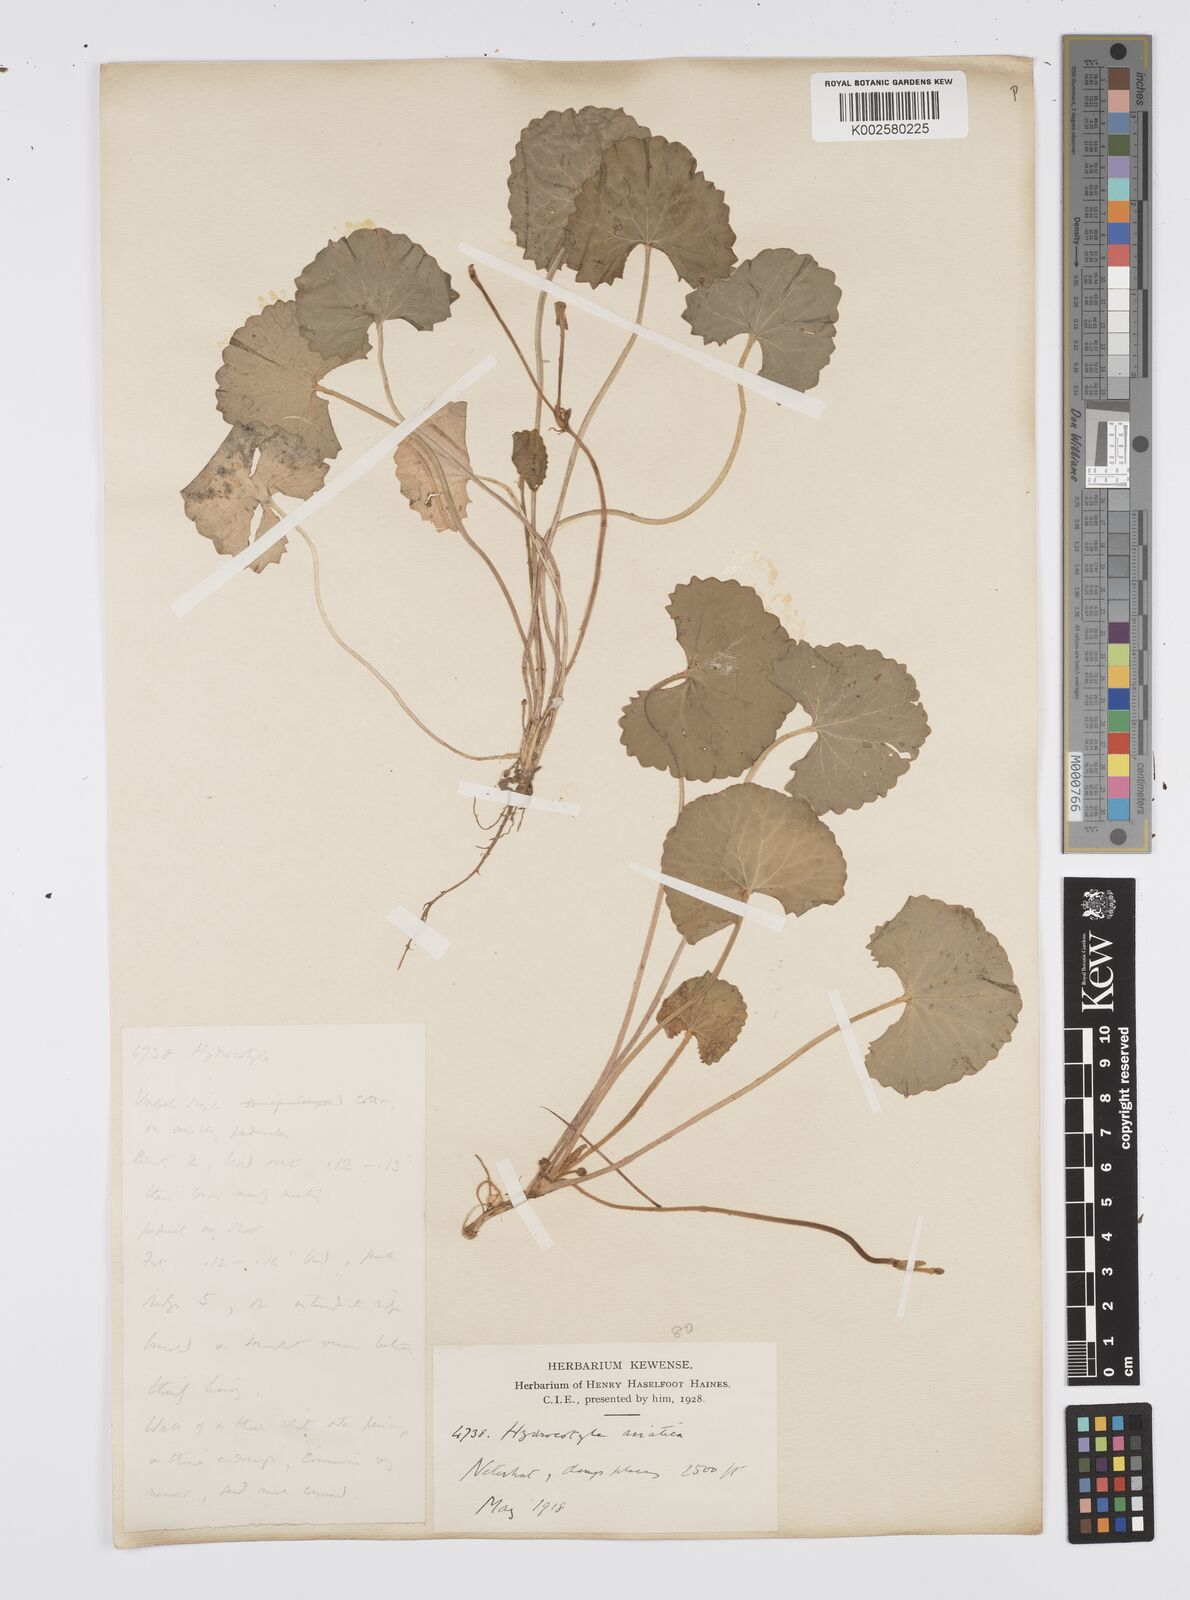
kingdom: Plantae
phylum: Tracheophyta
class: Magnoliopsida
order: Apiales
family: Apiaceae
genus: Centella
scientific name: Centella asiatica
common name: Spadeleaf
